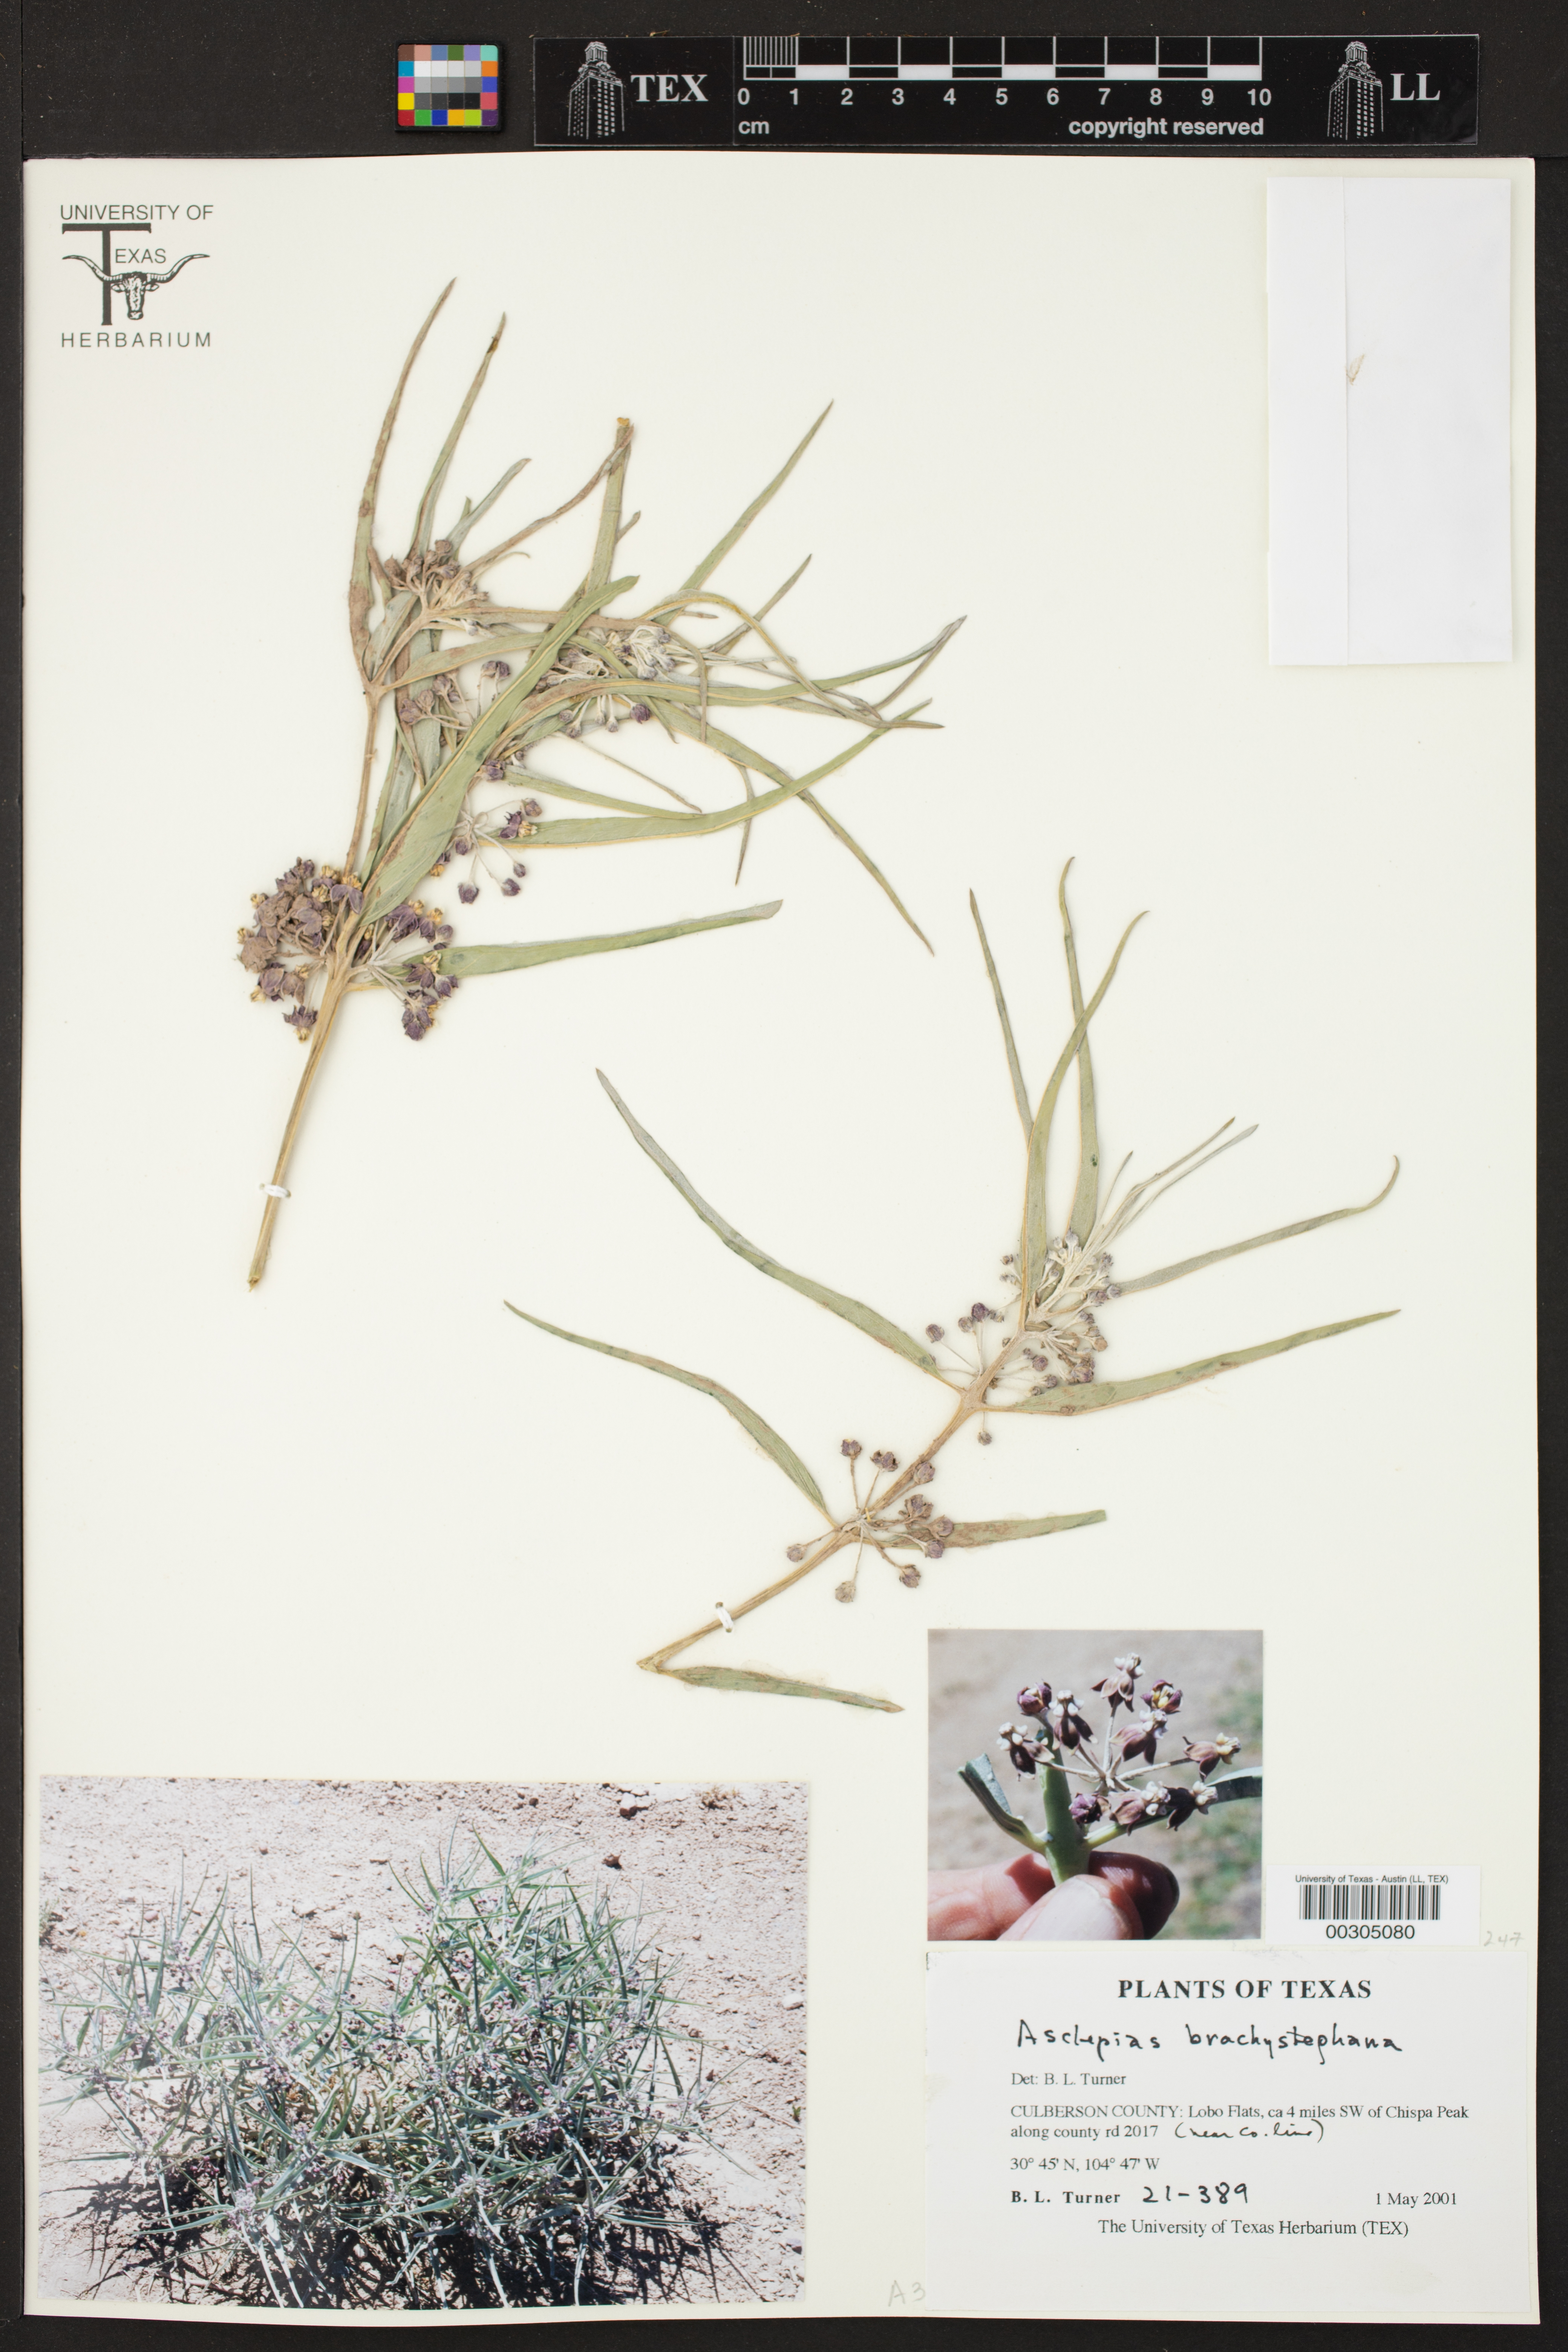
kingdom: Plantae
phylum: Tracheophyta
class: Magnoliopsida
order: Gentianales
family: Apocynaceae
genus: Asclepias
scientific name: Asclepias brachystephana
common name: Shortcrown milkweed
